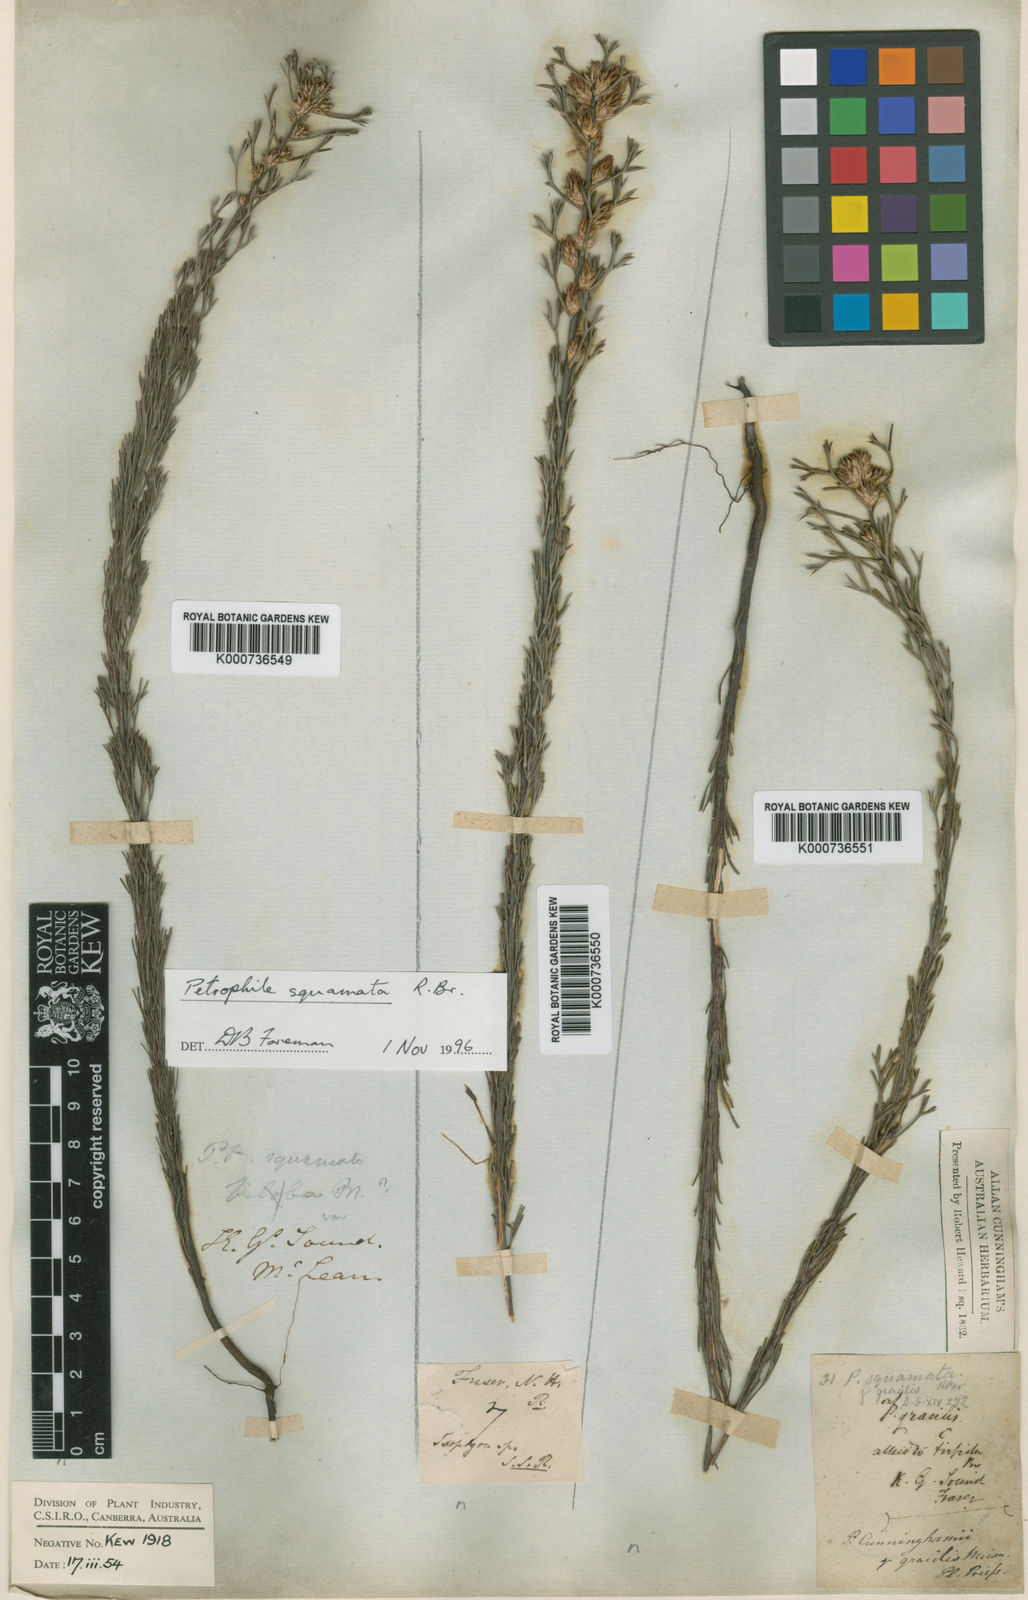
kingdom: Plantae
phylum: Tracheophyta
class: Magnoliopsida
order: Proteales
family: Proteaceae
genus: Petrophile
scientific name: Petrophile squamata
